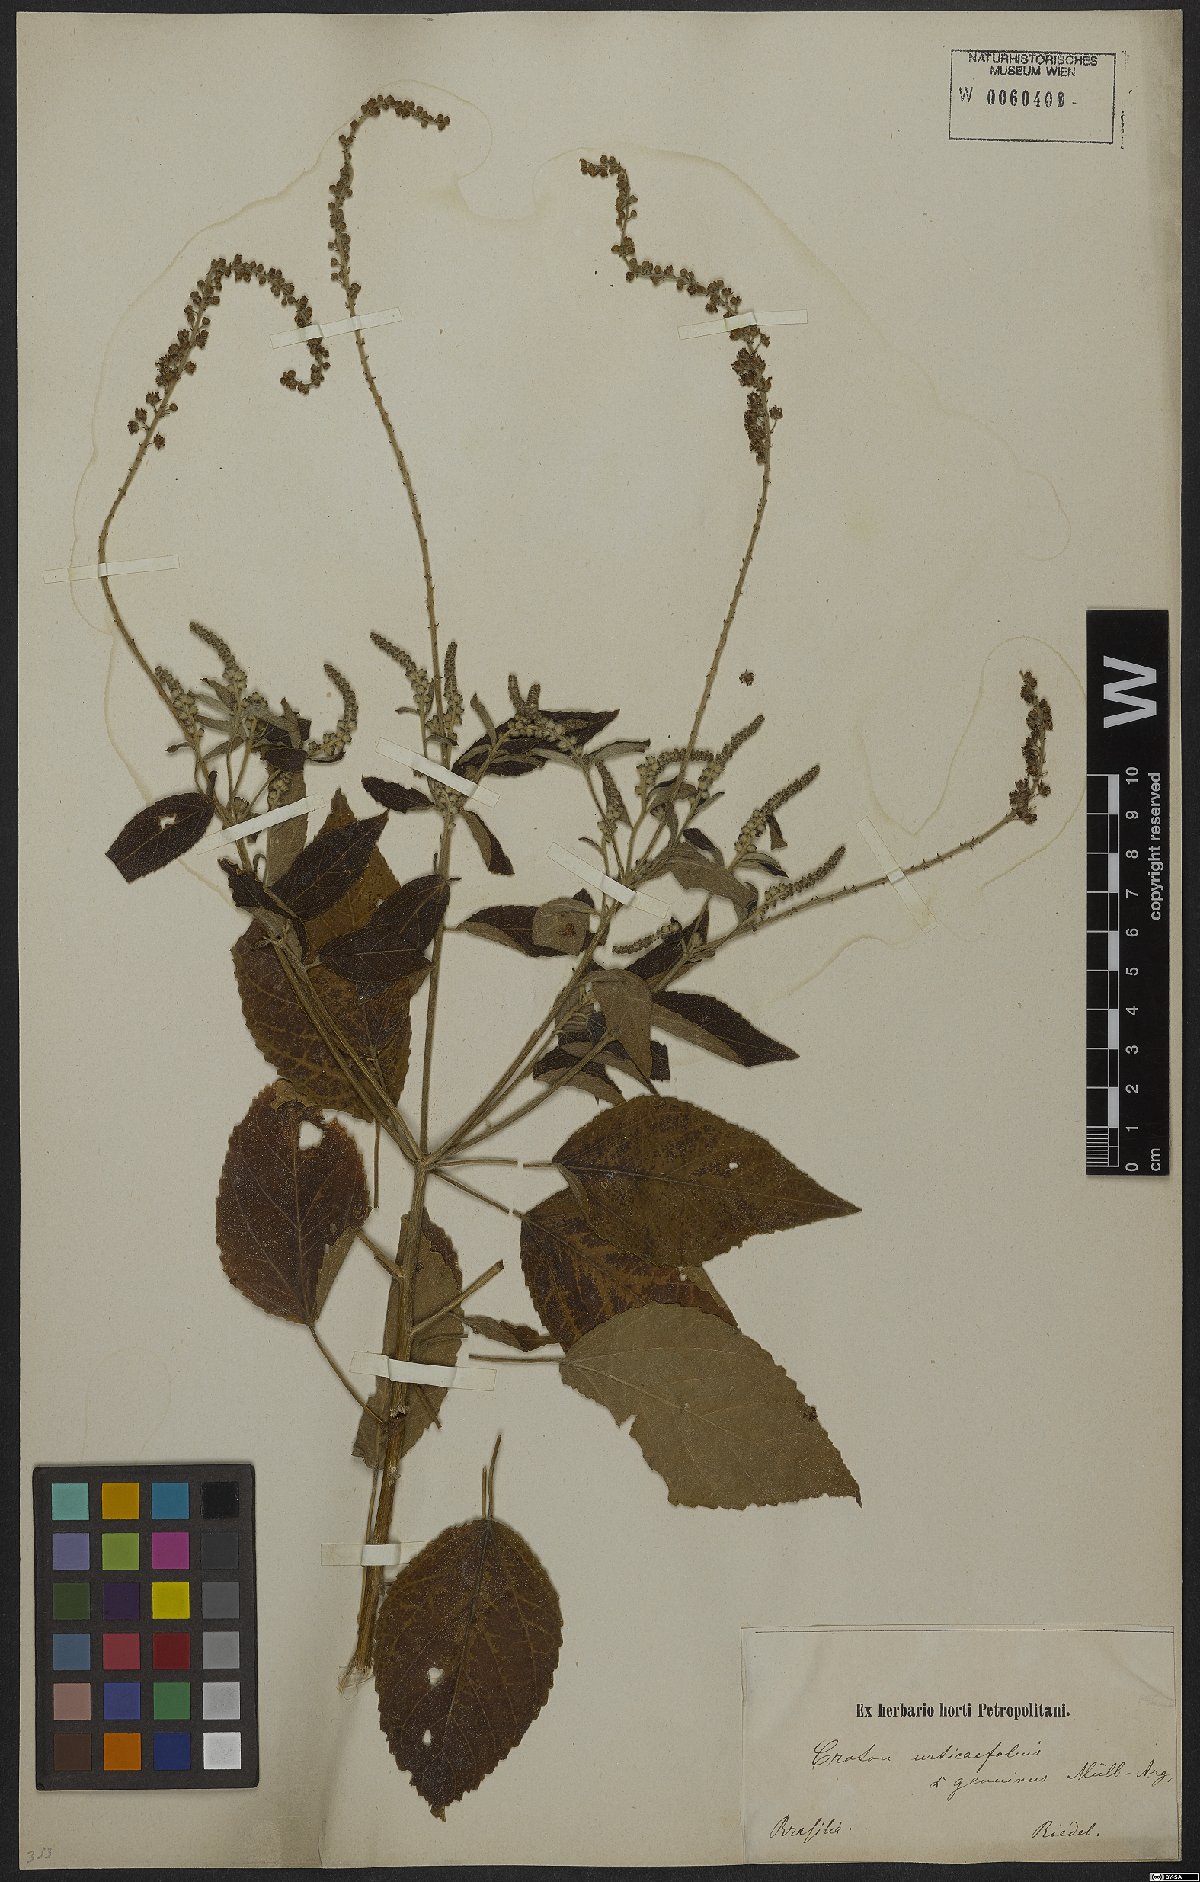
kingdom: Plantae
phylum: Tracheophyta
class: Magnoliopsida
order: Malpighiales
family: Euphorbiaceae
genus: Croton
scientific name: Croton urticifolius
